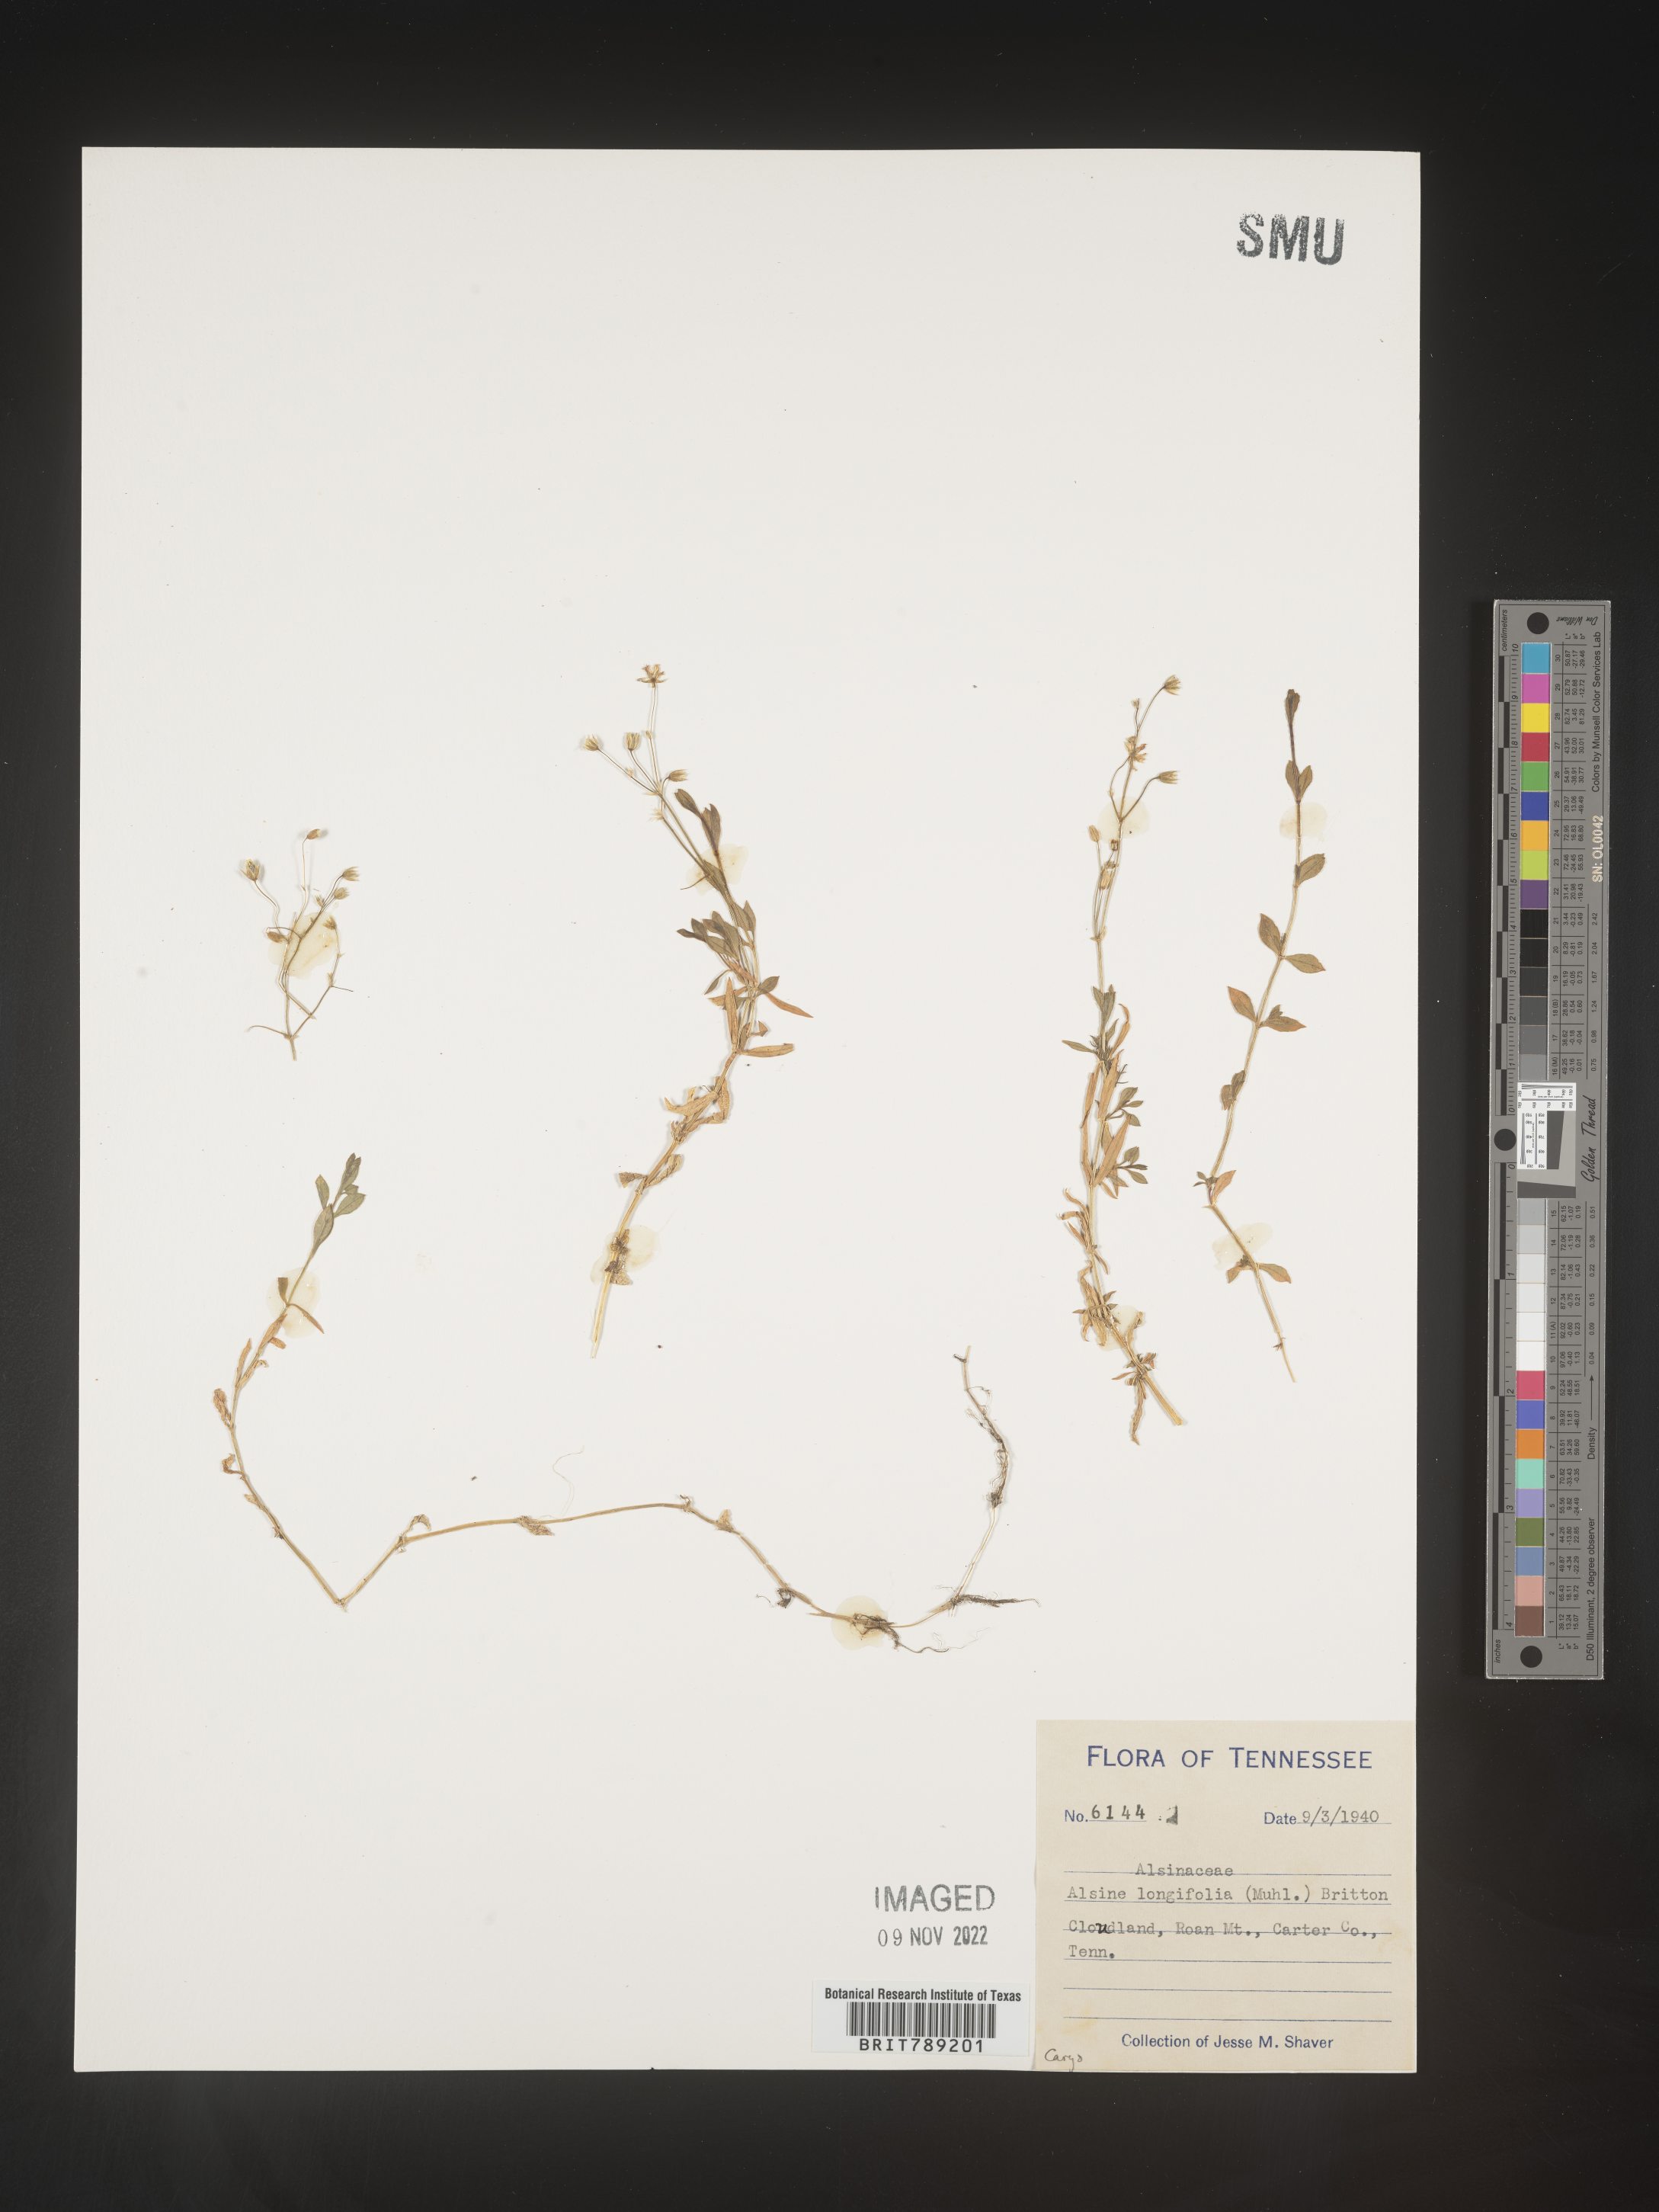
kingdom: Plantae
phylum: Tracheophyta
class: Magnoliopsida
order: Caryophyllales
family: Caryophyllaceae
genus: Arenaria
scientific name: Arenaria
